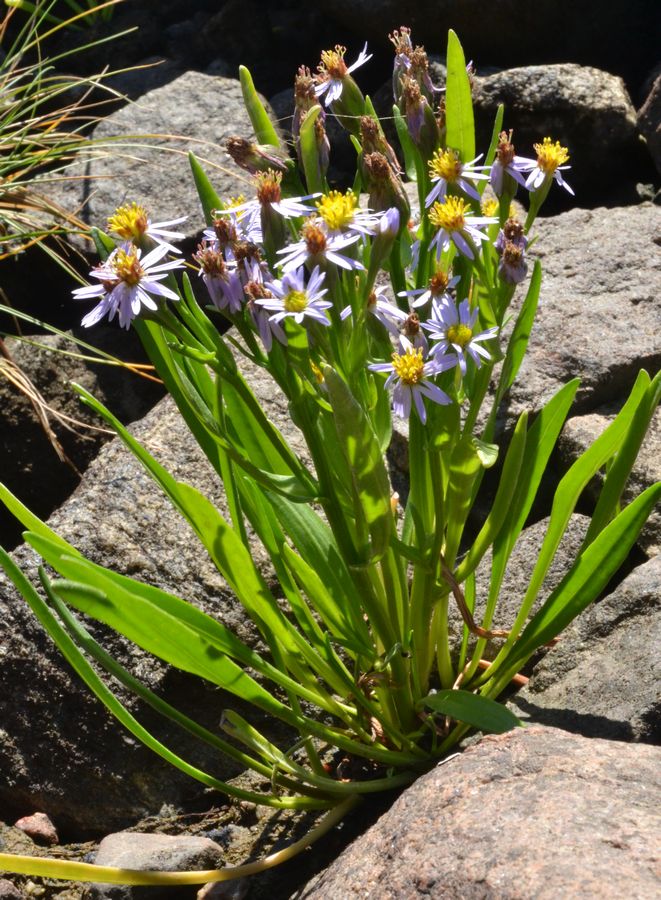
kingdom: Plantae
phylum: Tracheophyta
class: Magnoliopsida
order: Asterales
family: Asteraceae
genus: Tripolium
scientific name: Tripolium pannonicum
